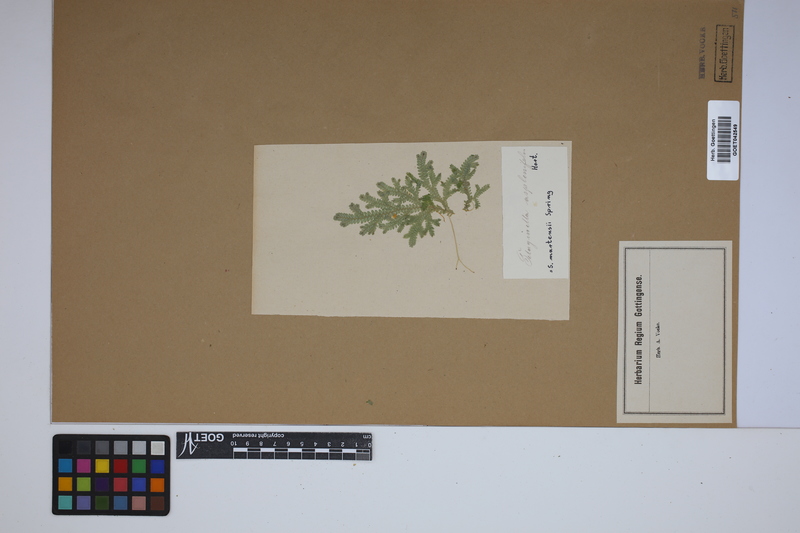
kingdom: Plantae
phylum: Tracheophyta
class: Lycopodiopsida
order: Selaginellales
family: Selaginellaceae
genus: Selaginella
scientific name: Selaginella martensii
